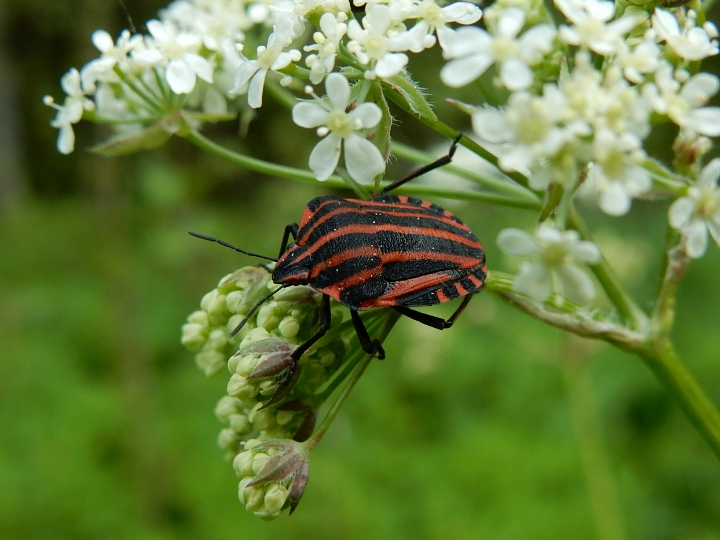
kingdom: Animalia
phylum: Arthropoda
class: Insecta
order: Hemiptera
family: Pentatomidae
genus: Graphosoma
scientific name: Graphosoma italicum
